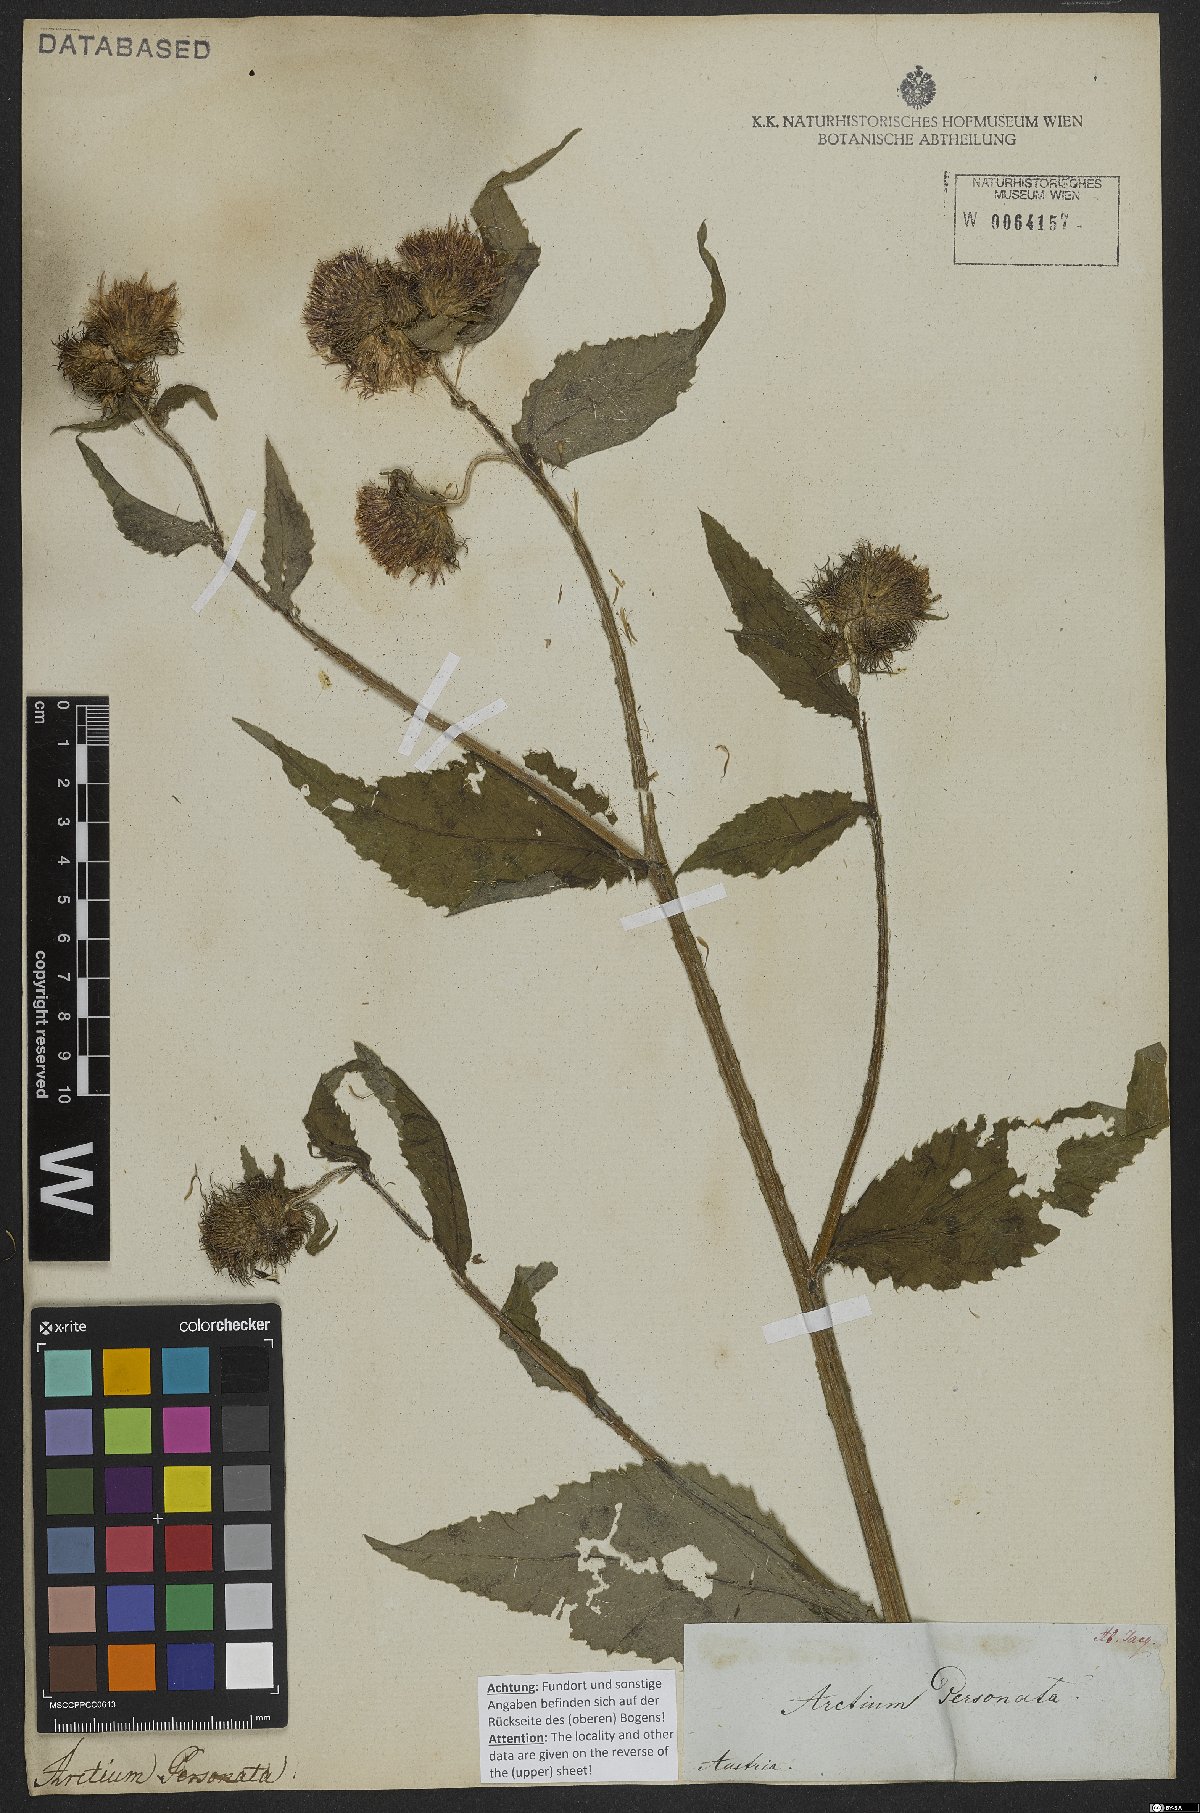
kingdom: Plantae
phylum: Tracheophyta
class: Magnoliopsida
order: Asterales
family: Asteraceae
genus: Carduus
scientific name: Carduus personata
